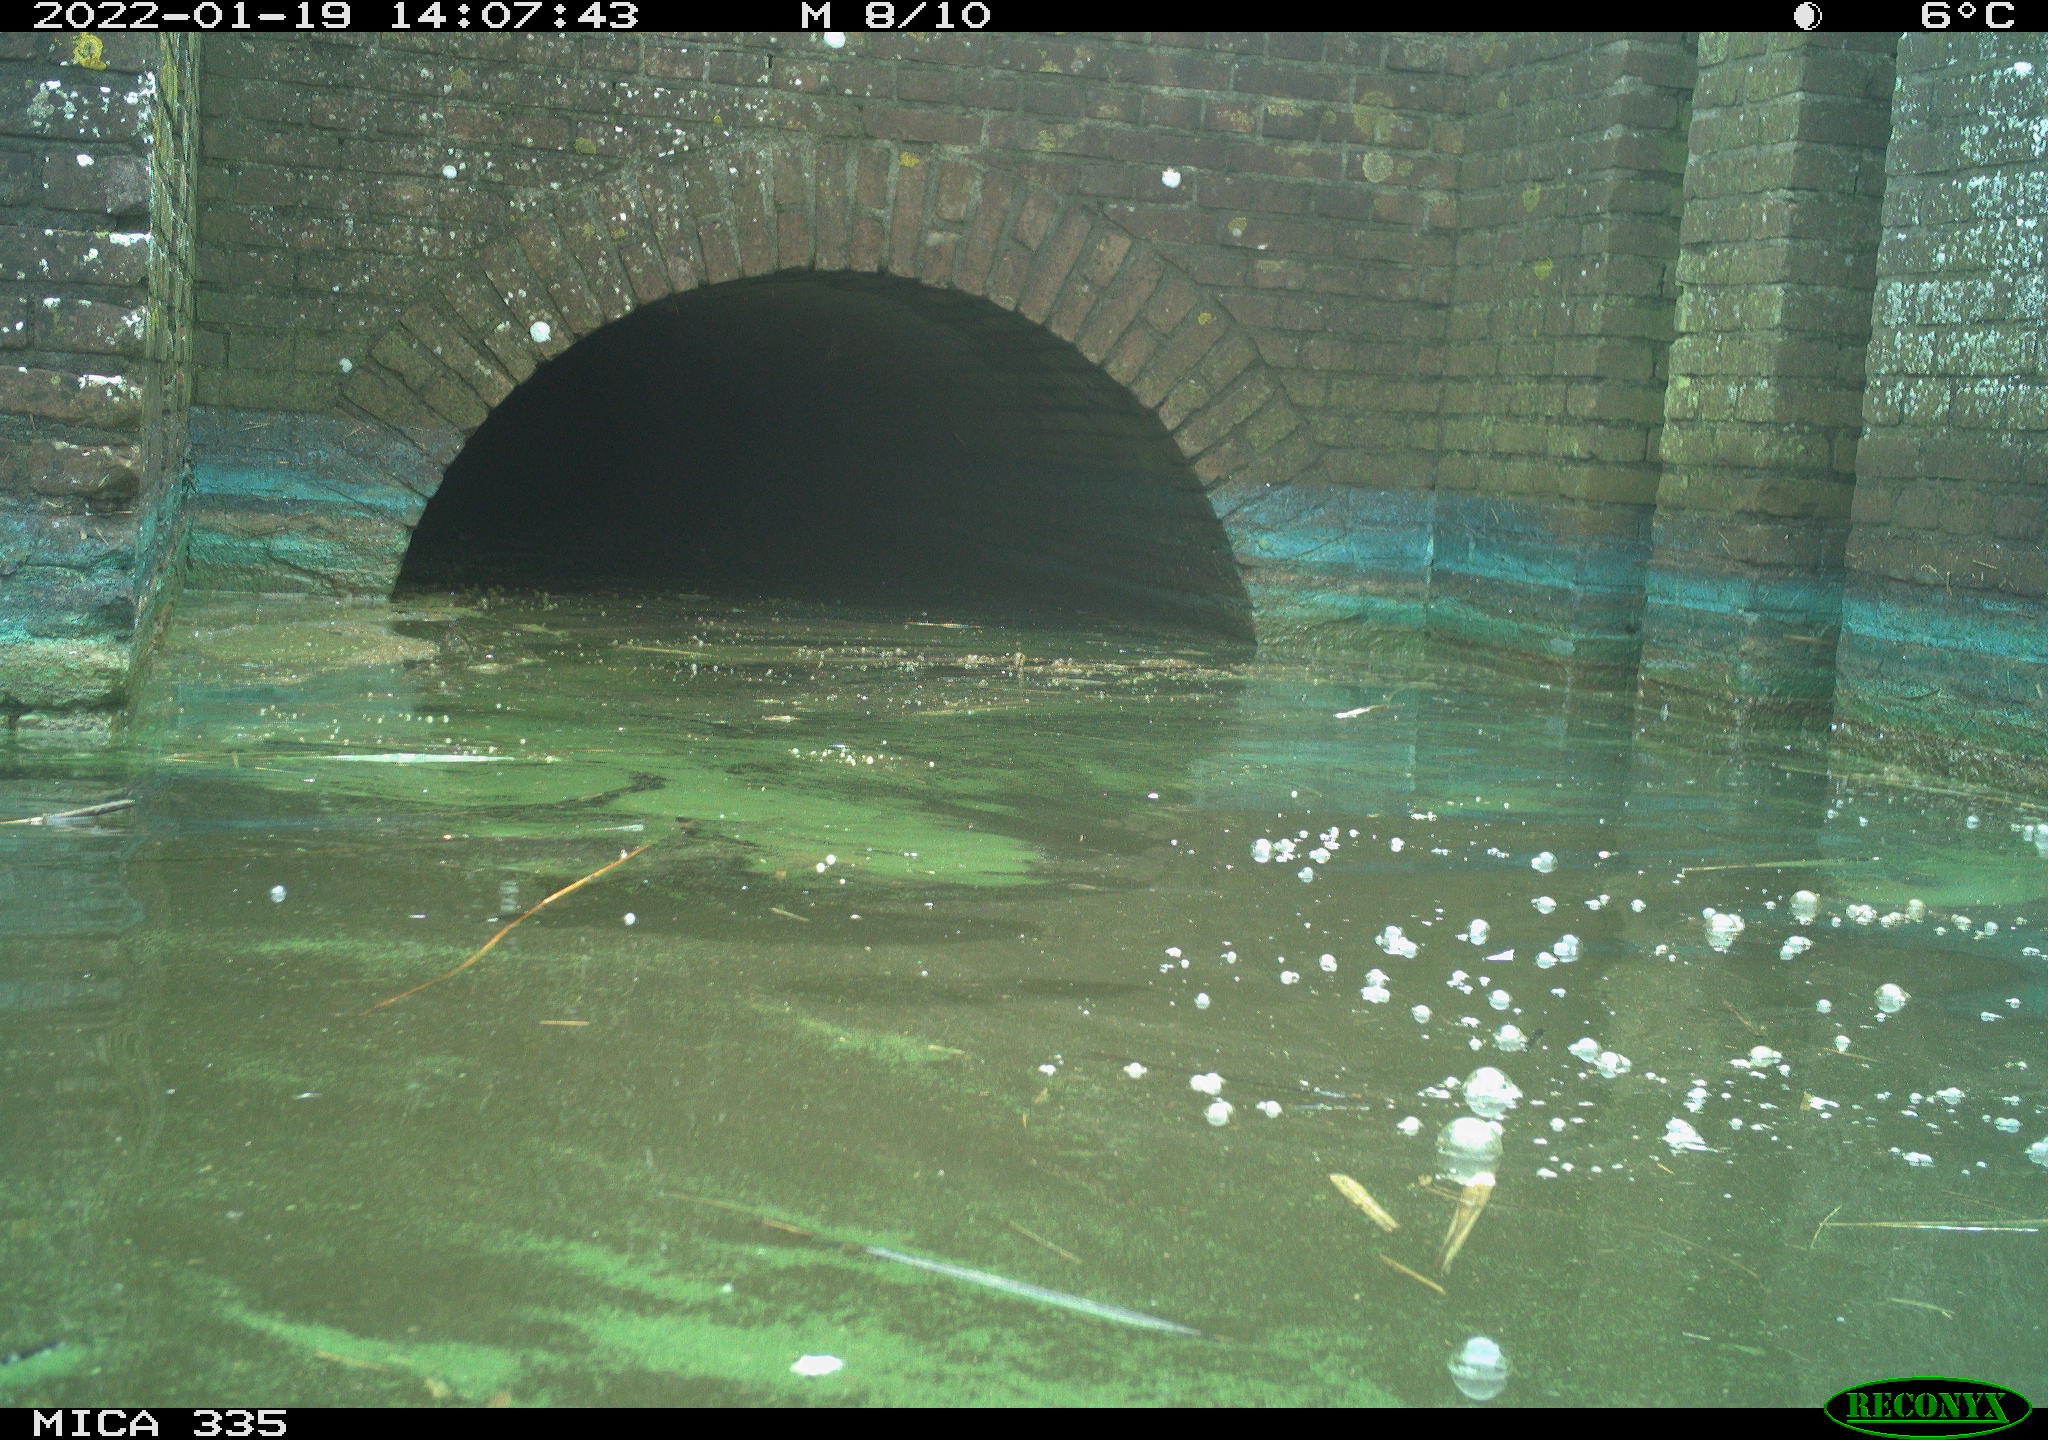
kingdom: Animalia
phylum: Chordata
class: Aves
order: Gruiformes
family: Rallidae
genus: Gallinula
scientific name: Gallinula chloropus
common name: Common moorhen
